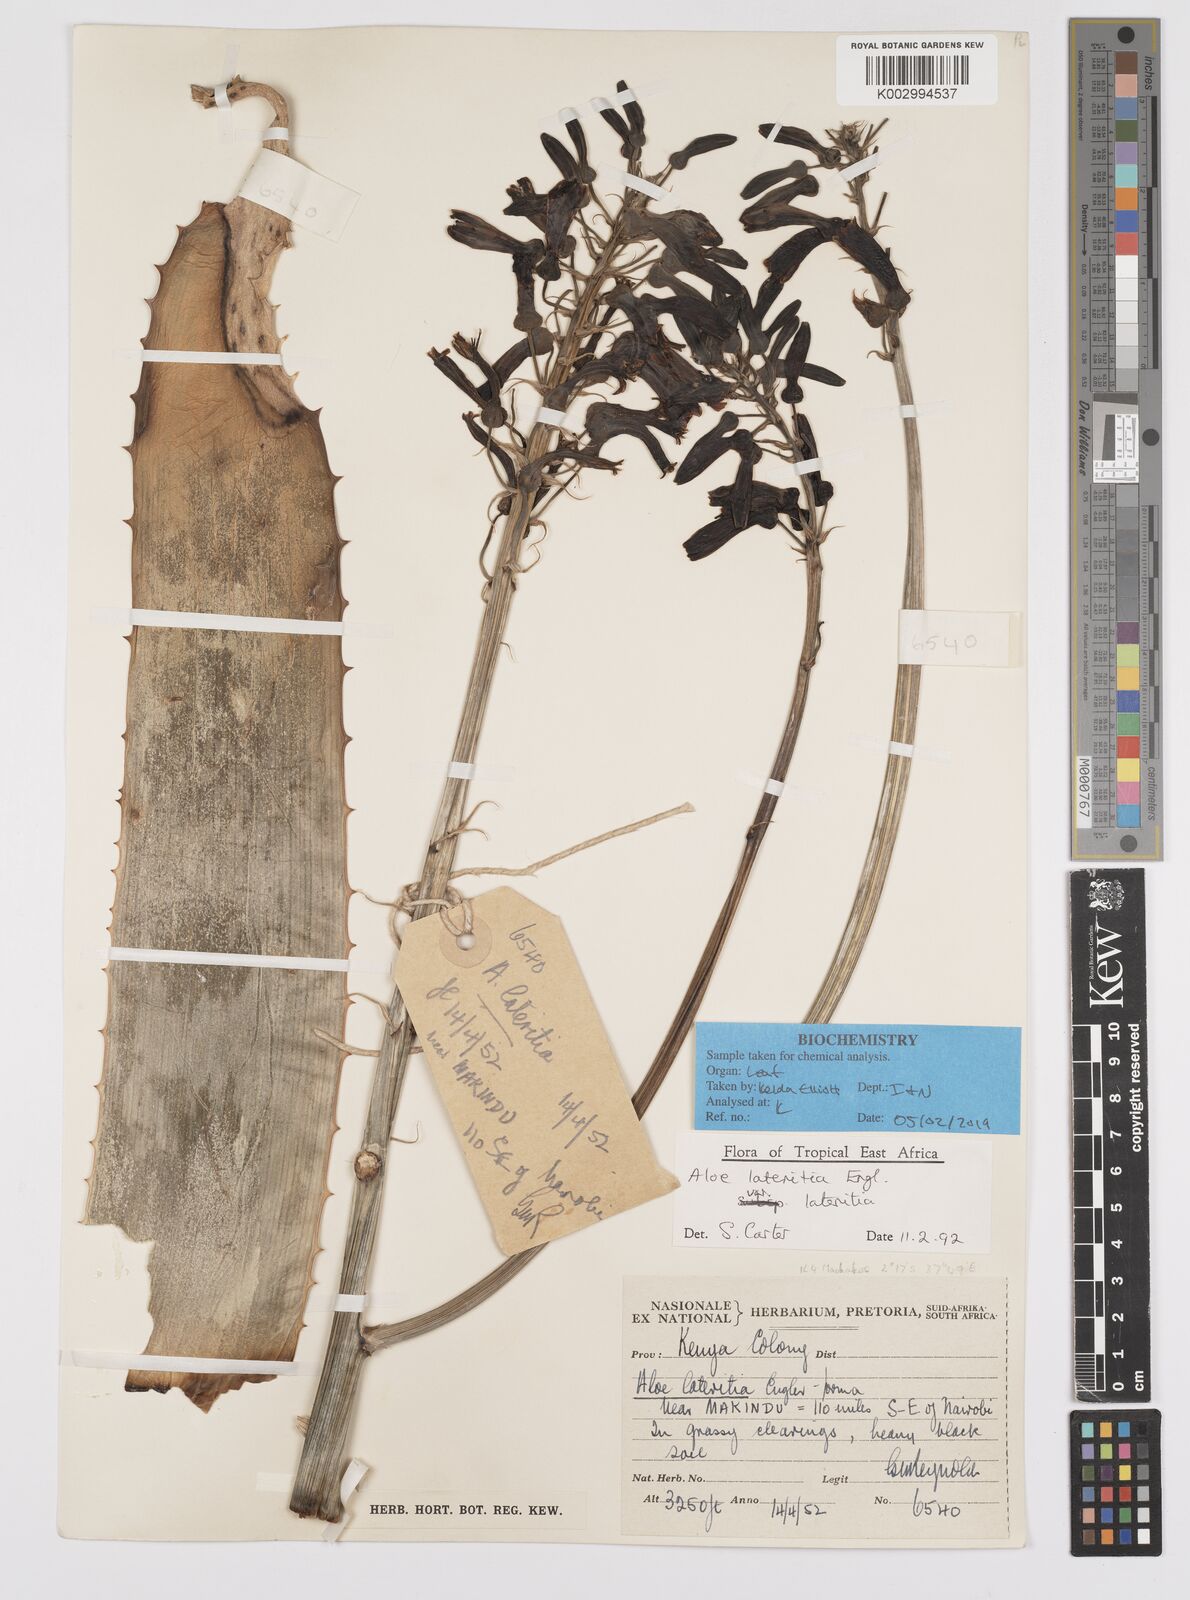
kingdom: Plantae
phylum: Tracheophyta
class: Liliopsida
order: Asparagales
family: Asphodelaceae
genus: Aloe
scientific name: Aloe lateritia
